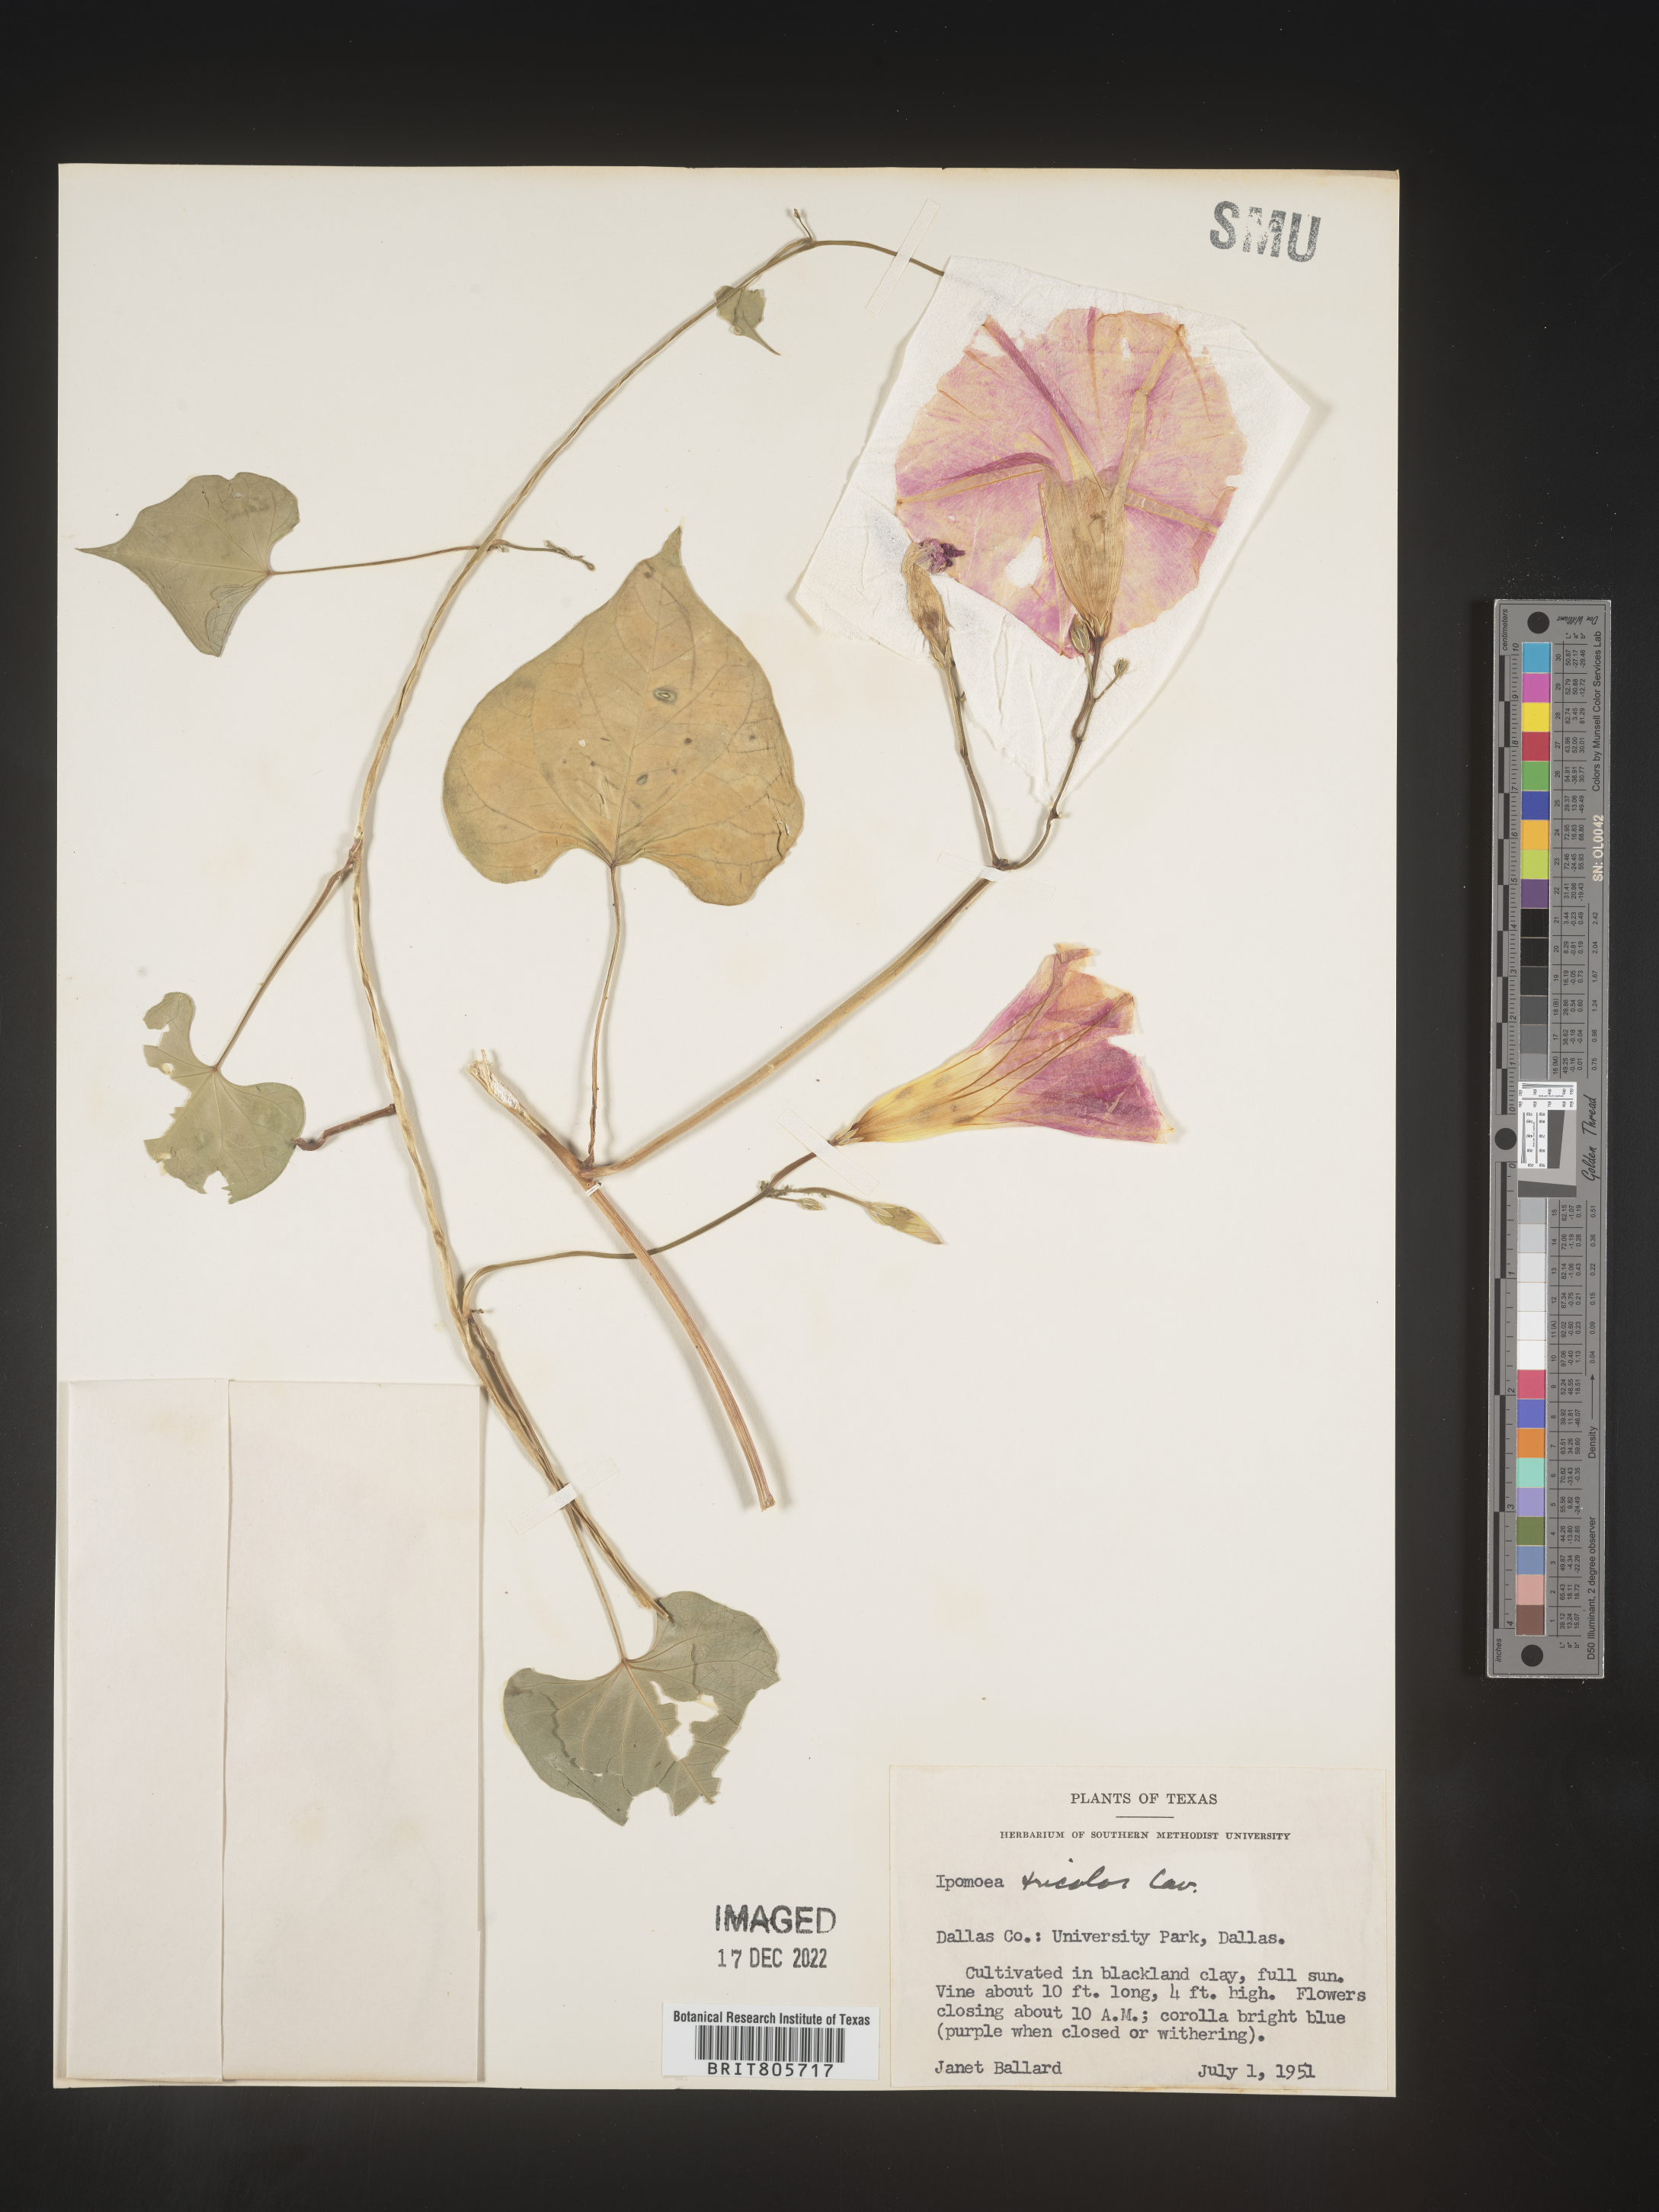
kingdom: Plantae
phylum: Tracheophyta
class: Magnoliopsida
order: Solanales
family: Convolvulaceae
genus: Ipomoea
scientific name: Ipomoea
